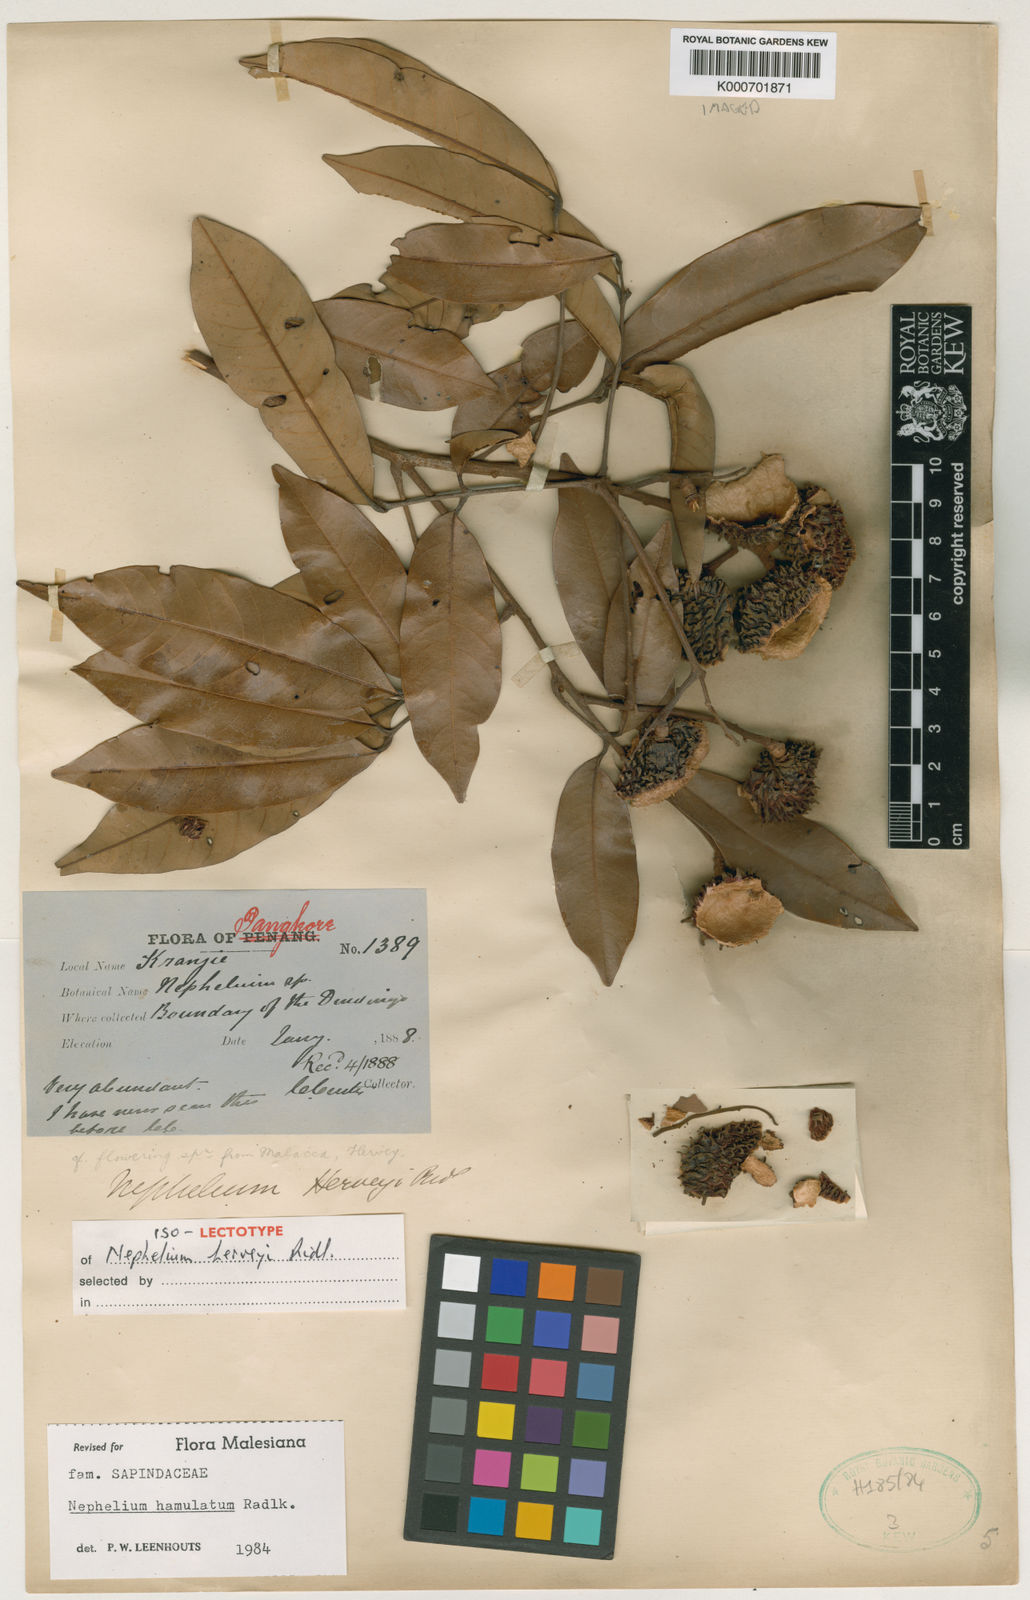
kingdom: Plantae
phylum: Tracheophyta
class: Magnoliopsida
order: Sapindales
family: Sapindaceae
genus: Nephelium
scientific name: Nephelium hamulatum
